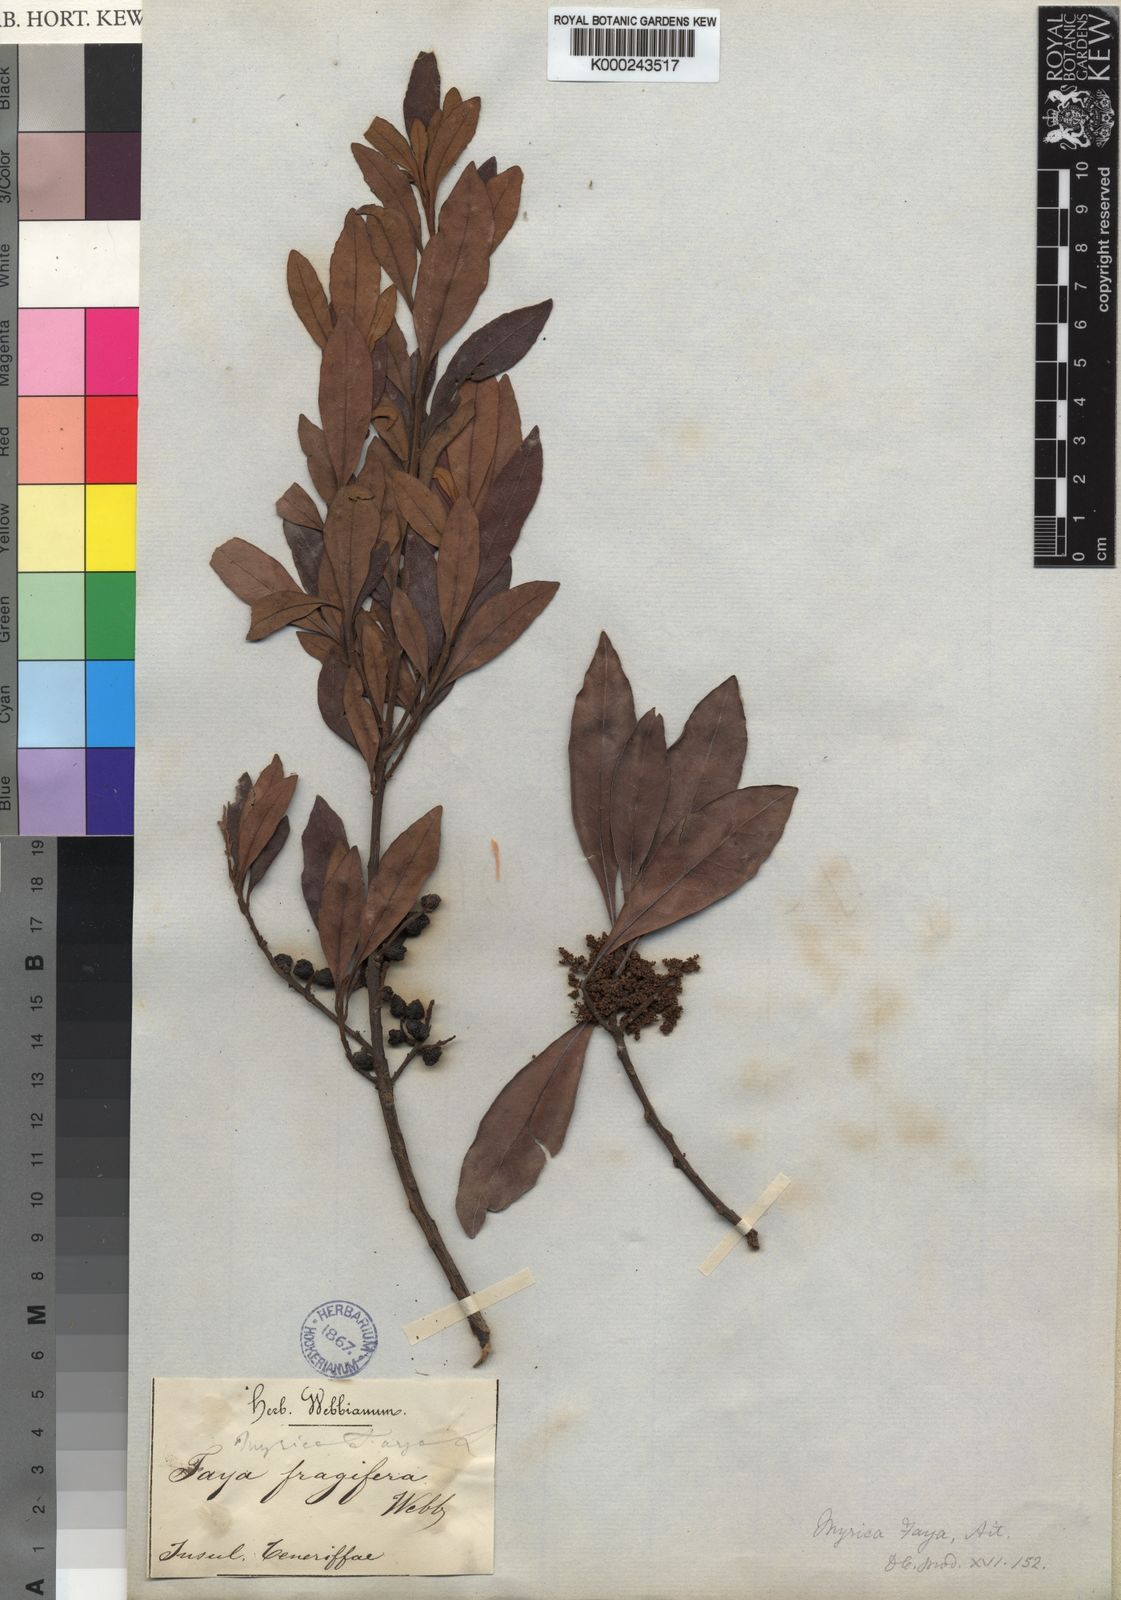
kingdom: Plantae
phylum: Tracheophyta
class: Magnoliopsida
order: Fagales
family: Myricaceae
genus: Morella
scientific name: Morella faya
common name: Firetree
